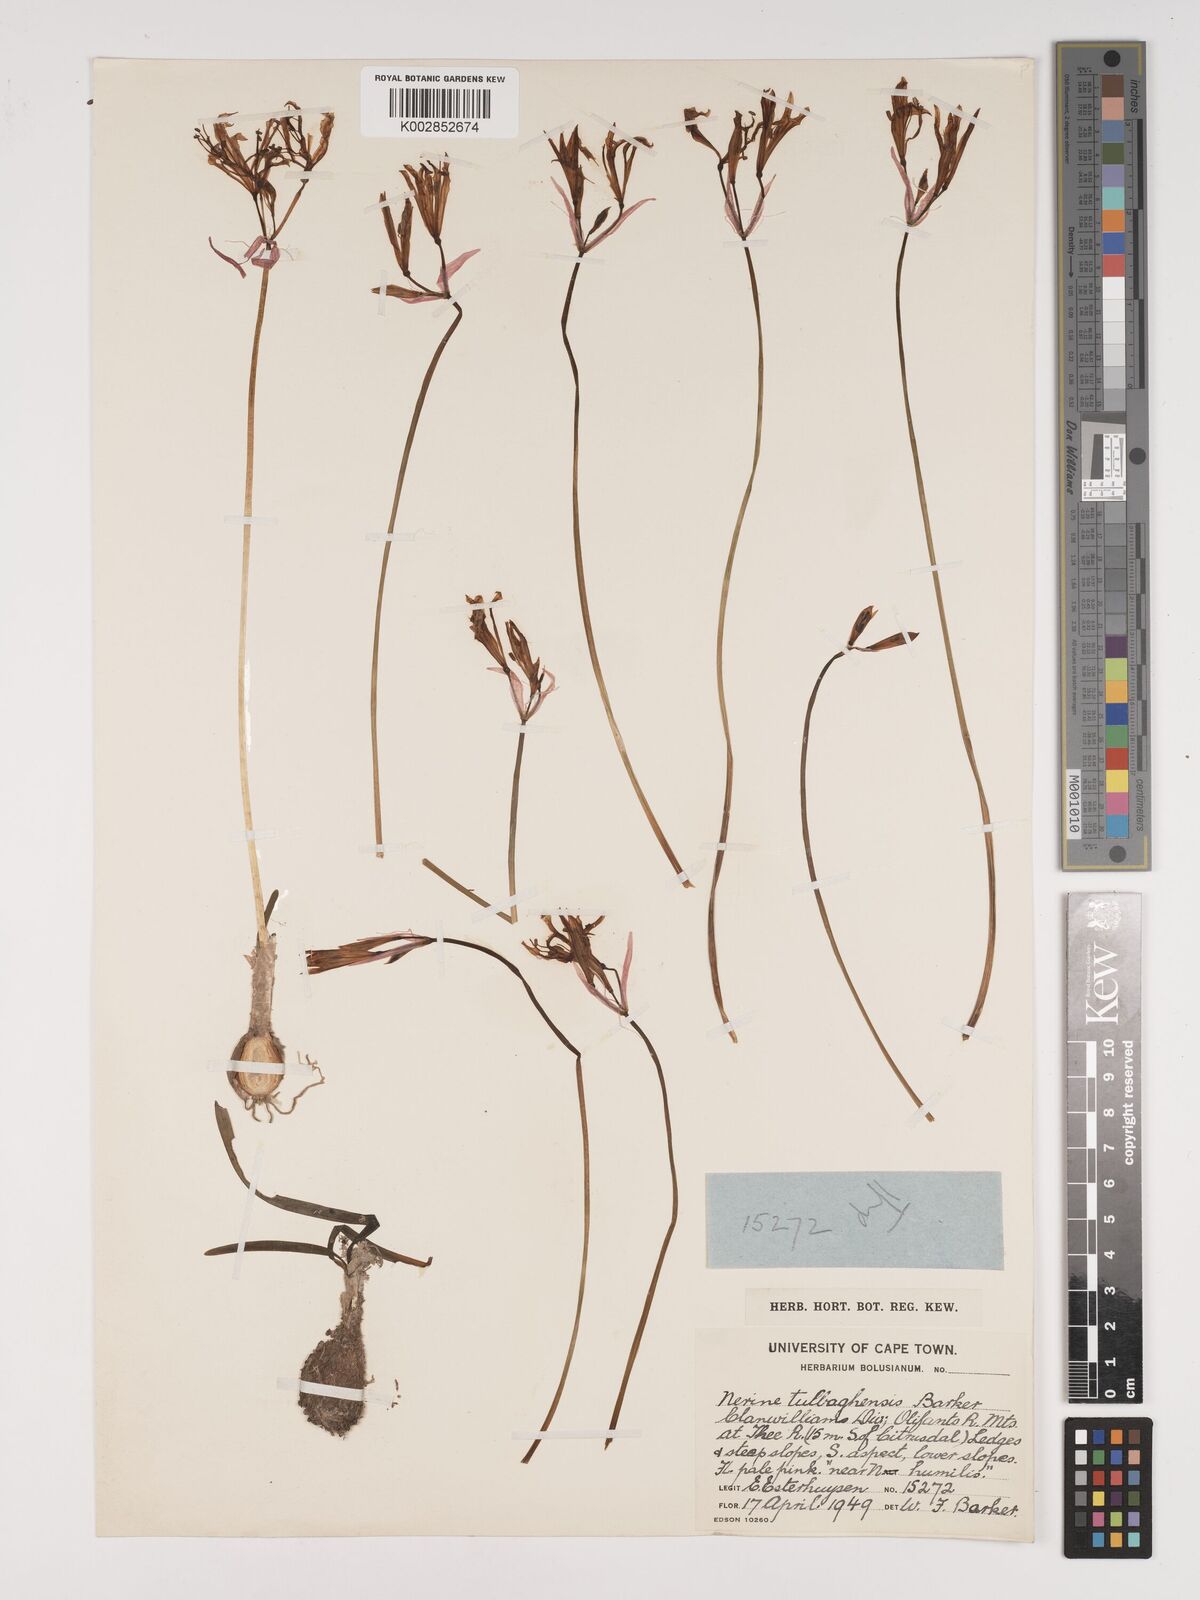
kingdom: Plantae
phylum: Tracheophyta
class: Liliopsida
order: Asparagales
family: Amaryllidaceae
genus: Nerine
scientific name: Nerine humilis
